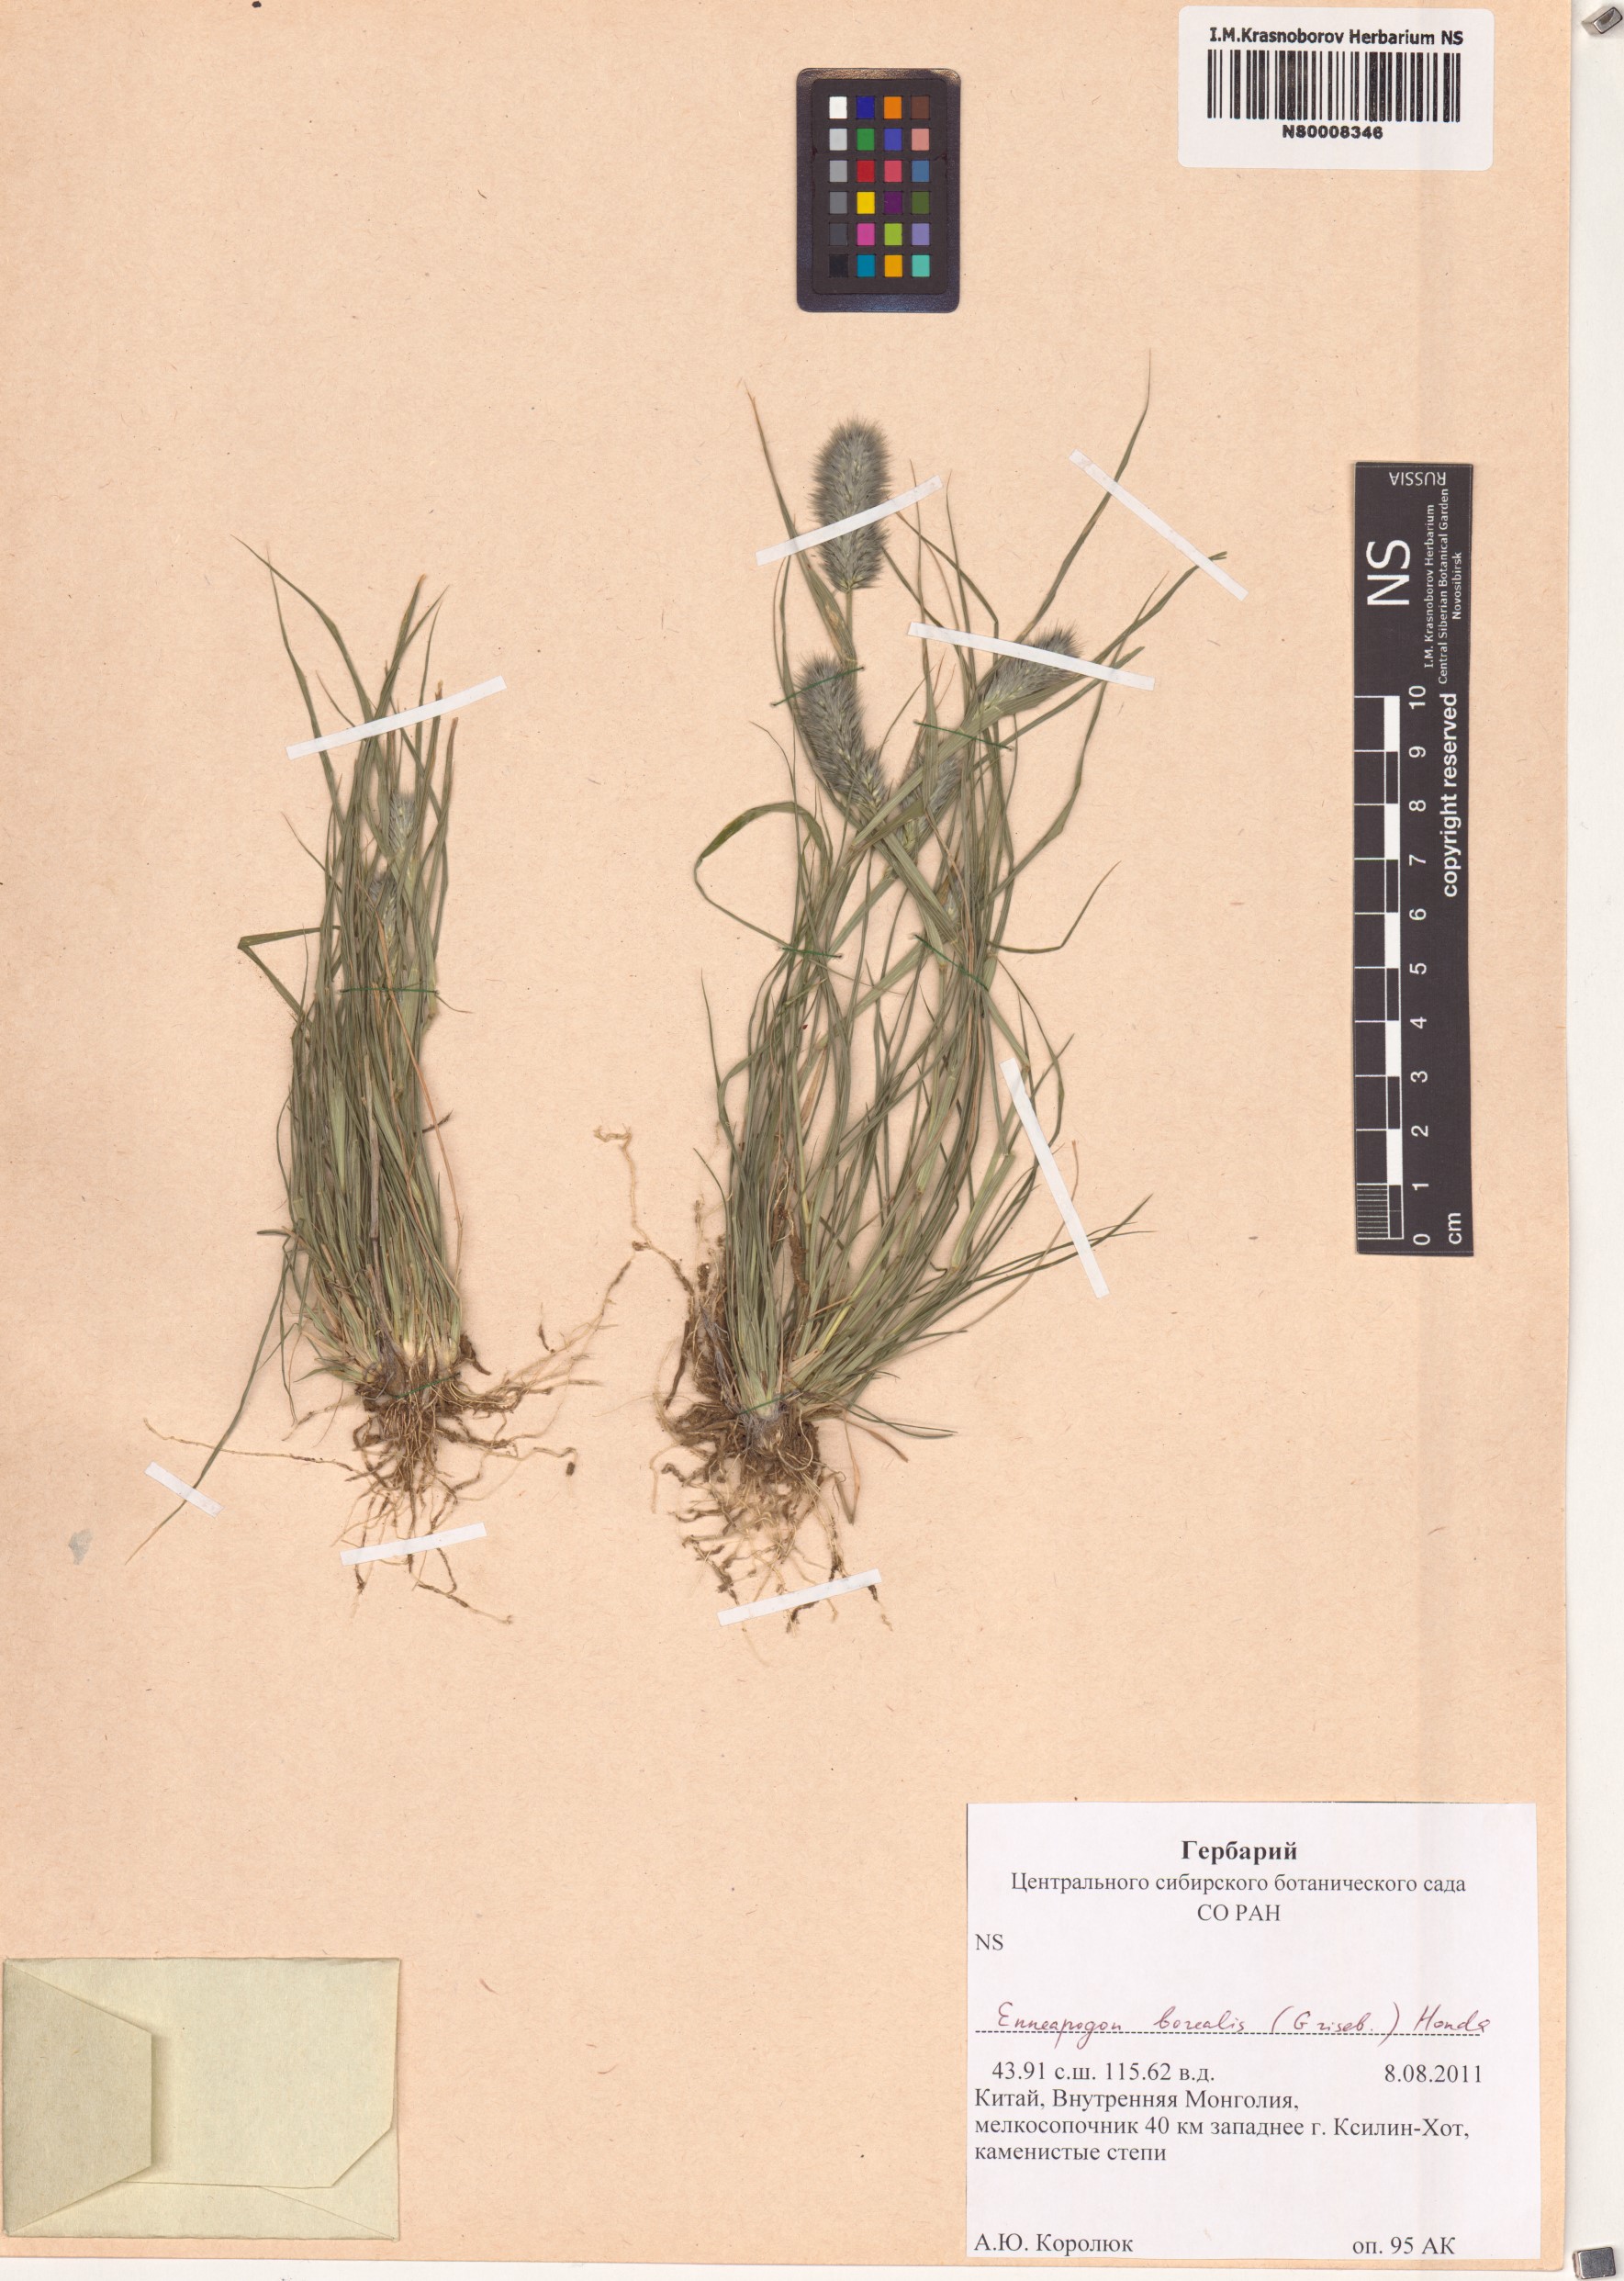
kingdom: Plantae
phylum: Tracheophyta
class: Liliopsida
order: Poales
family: Poaceae
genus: Enneapogon
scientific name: Enneapogon desvauxii
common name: Feather pappus grass
